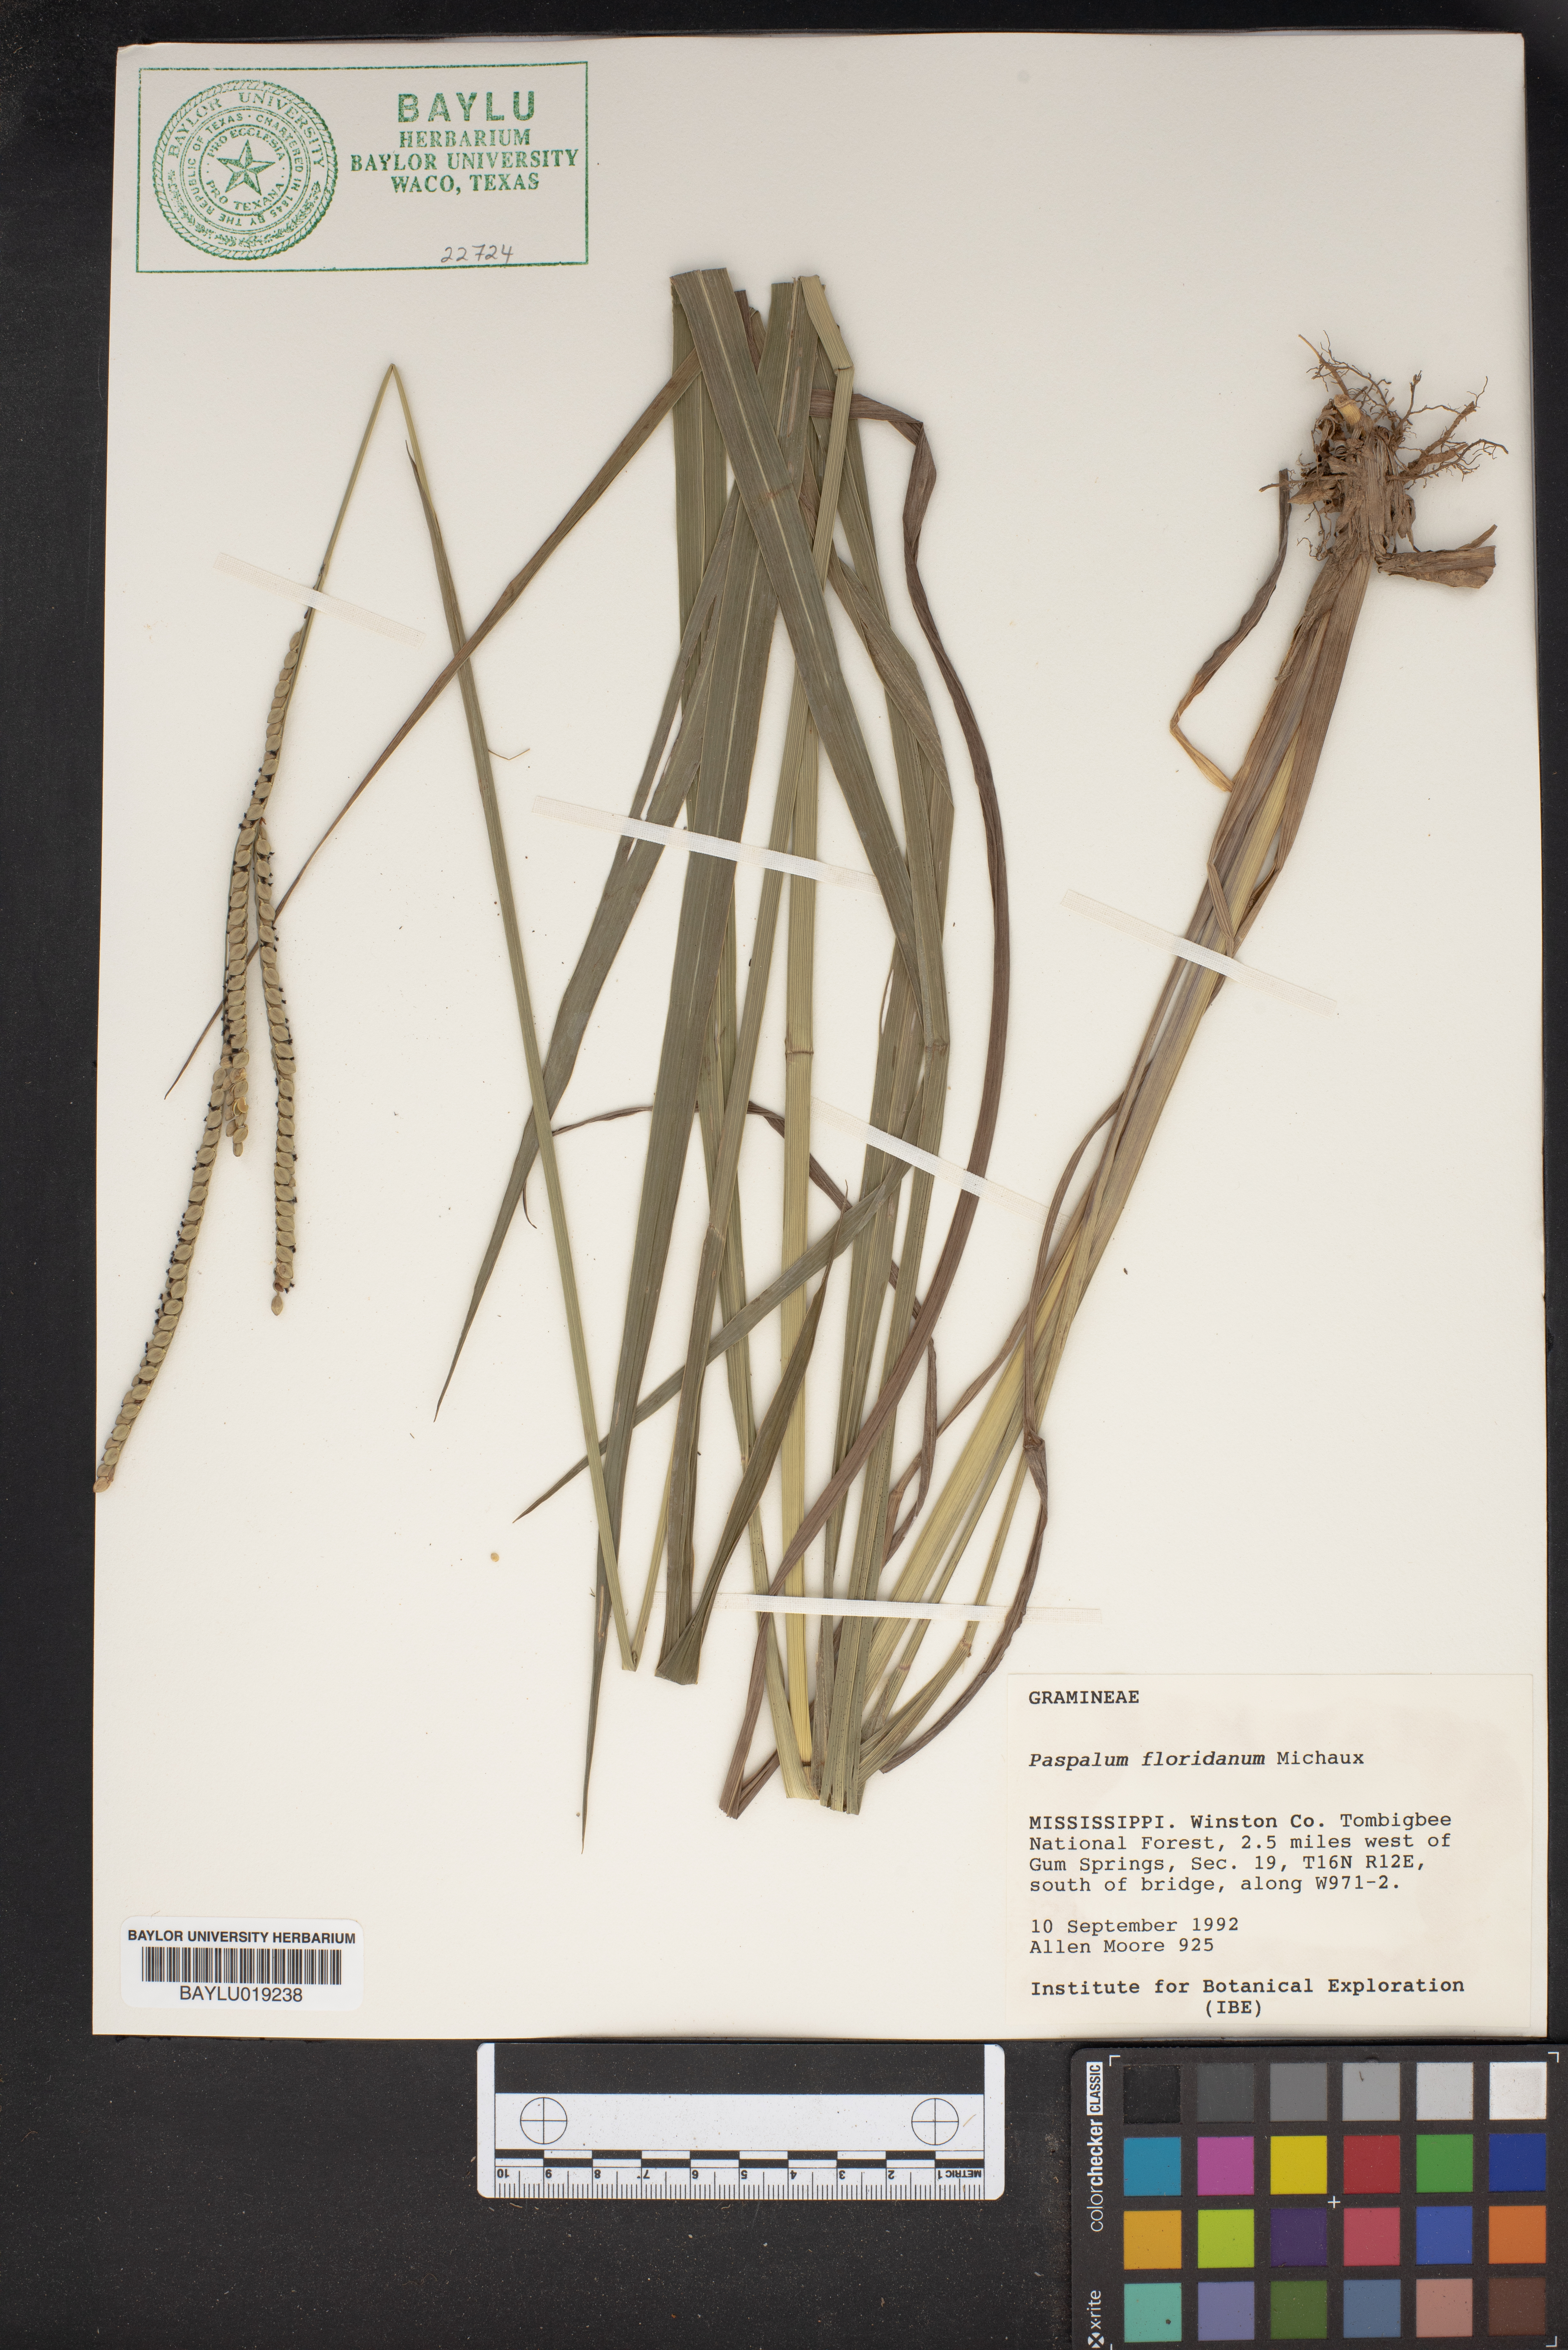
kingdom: Plantae
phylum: Tracheophyta
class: Liliopsida
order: Poales
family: Poaceae
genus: Paspalum
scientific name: Paspalum floridanum
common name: Florida paspalum
